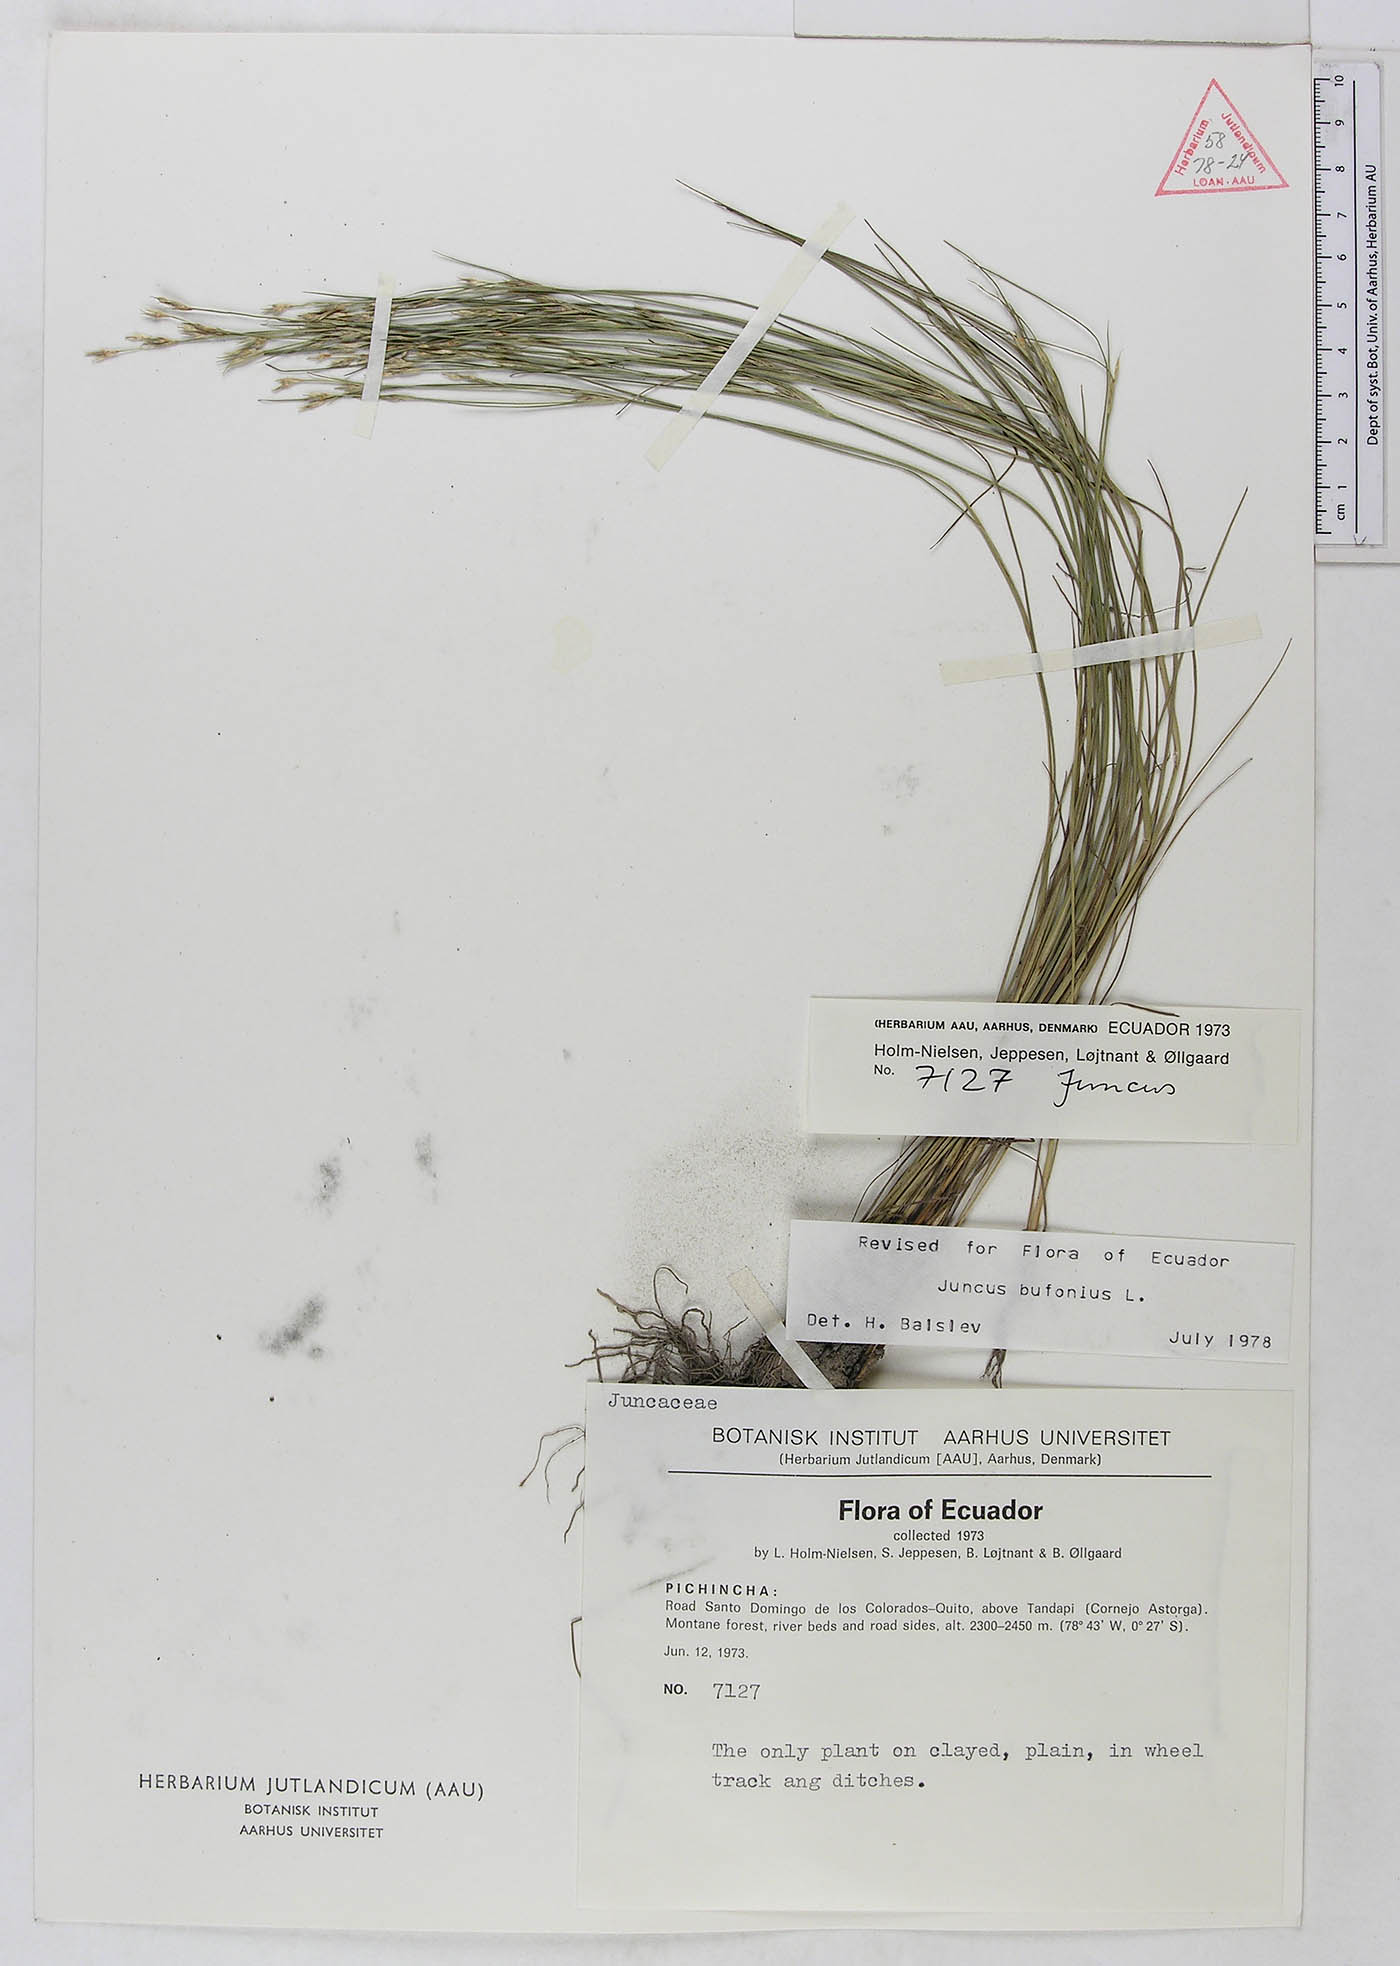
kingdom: Plantae
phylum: Tracheophyta
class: Liliopsida
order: Poales
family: Juncaceae
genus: Juncus
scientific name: Juncus bufonius
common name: Toad rush
